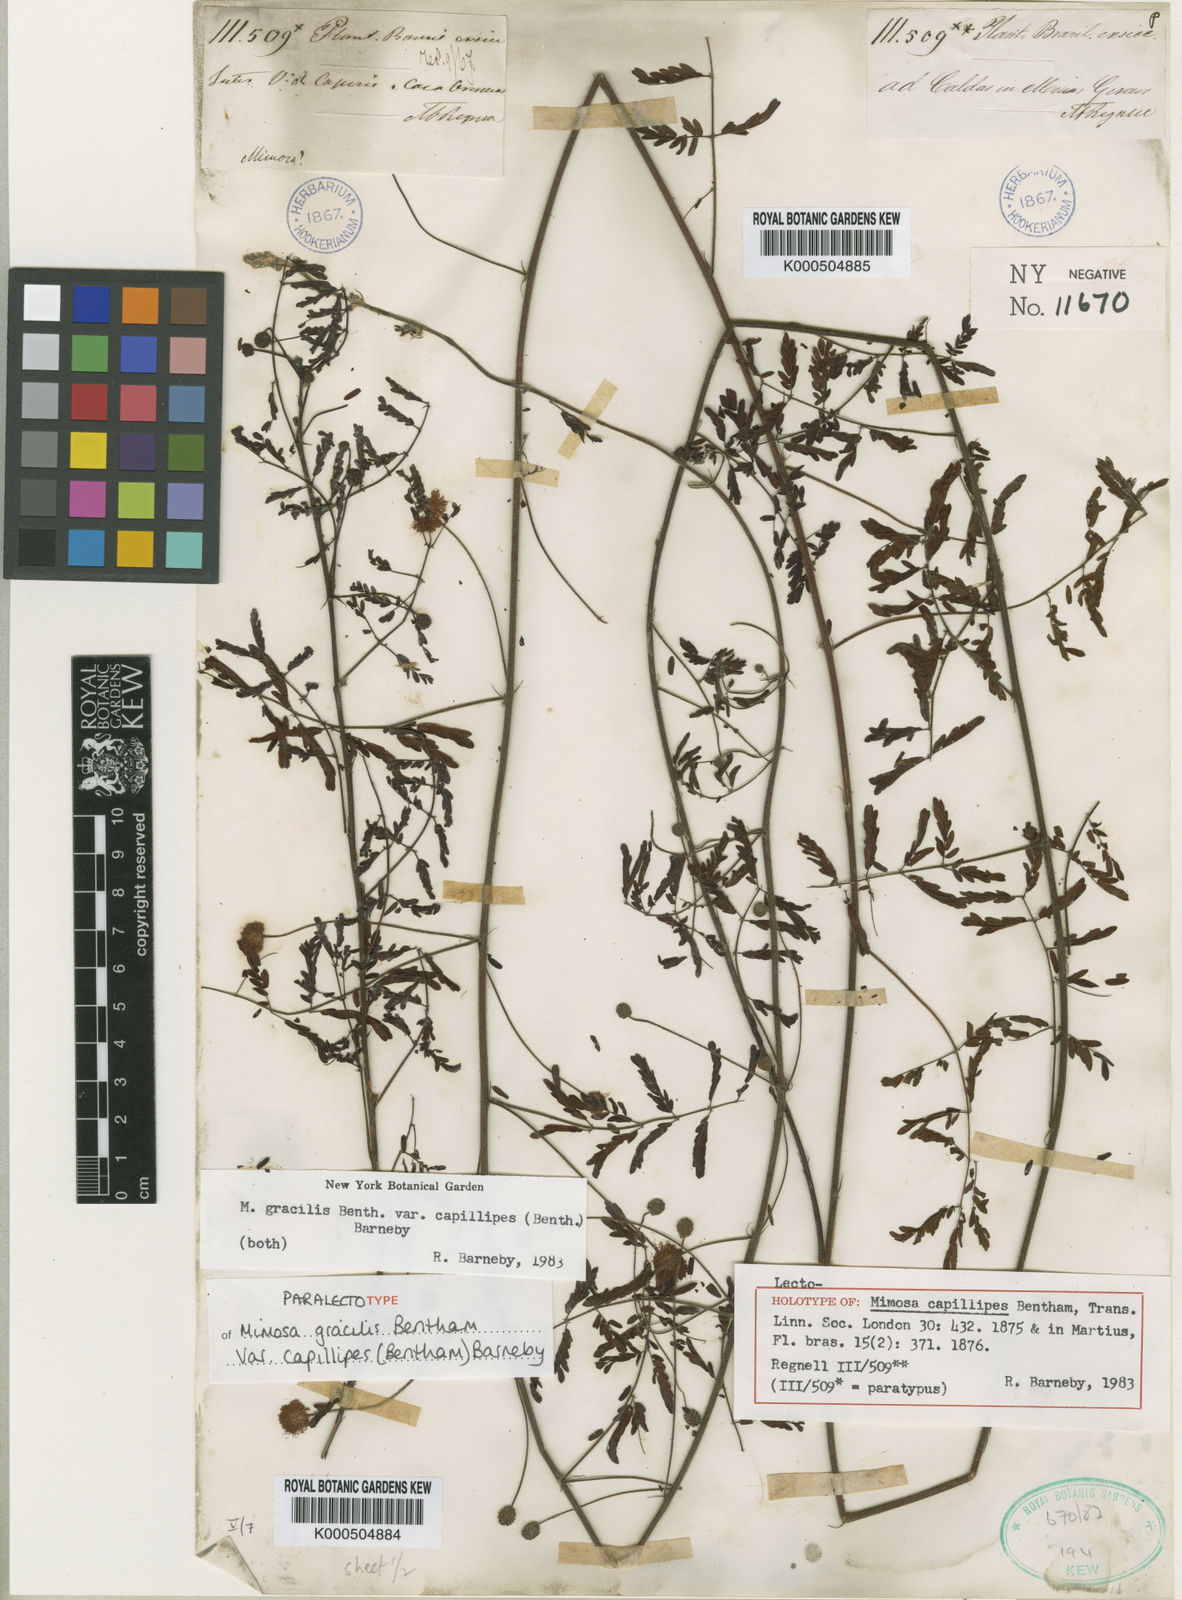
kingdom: Plantae
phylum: Tracheophyta
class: Magnoliopsida
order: Fabales
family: Fabaceae
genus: Mimosa
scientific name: Mimosa gracilis
